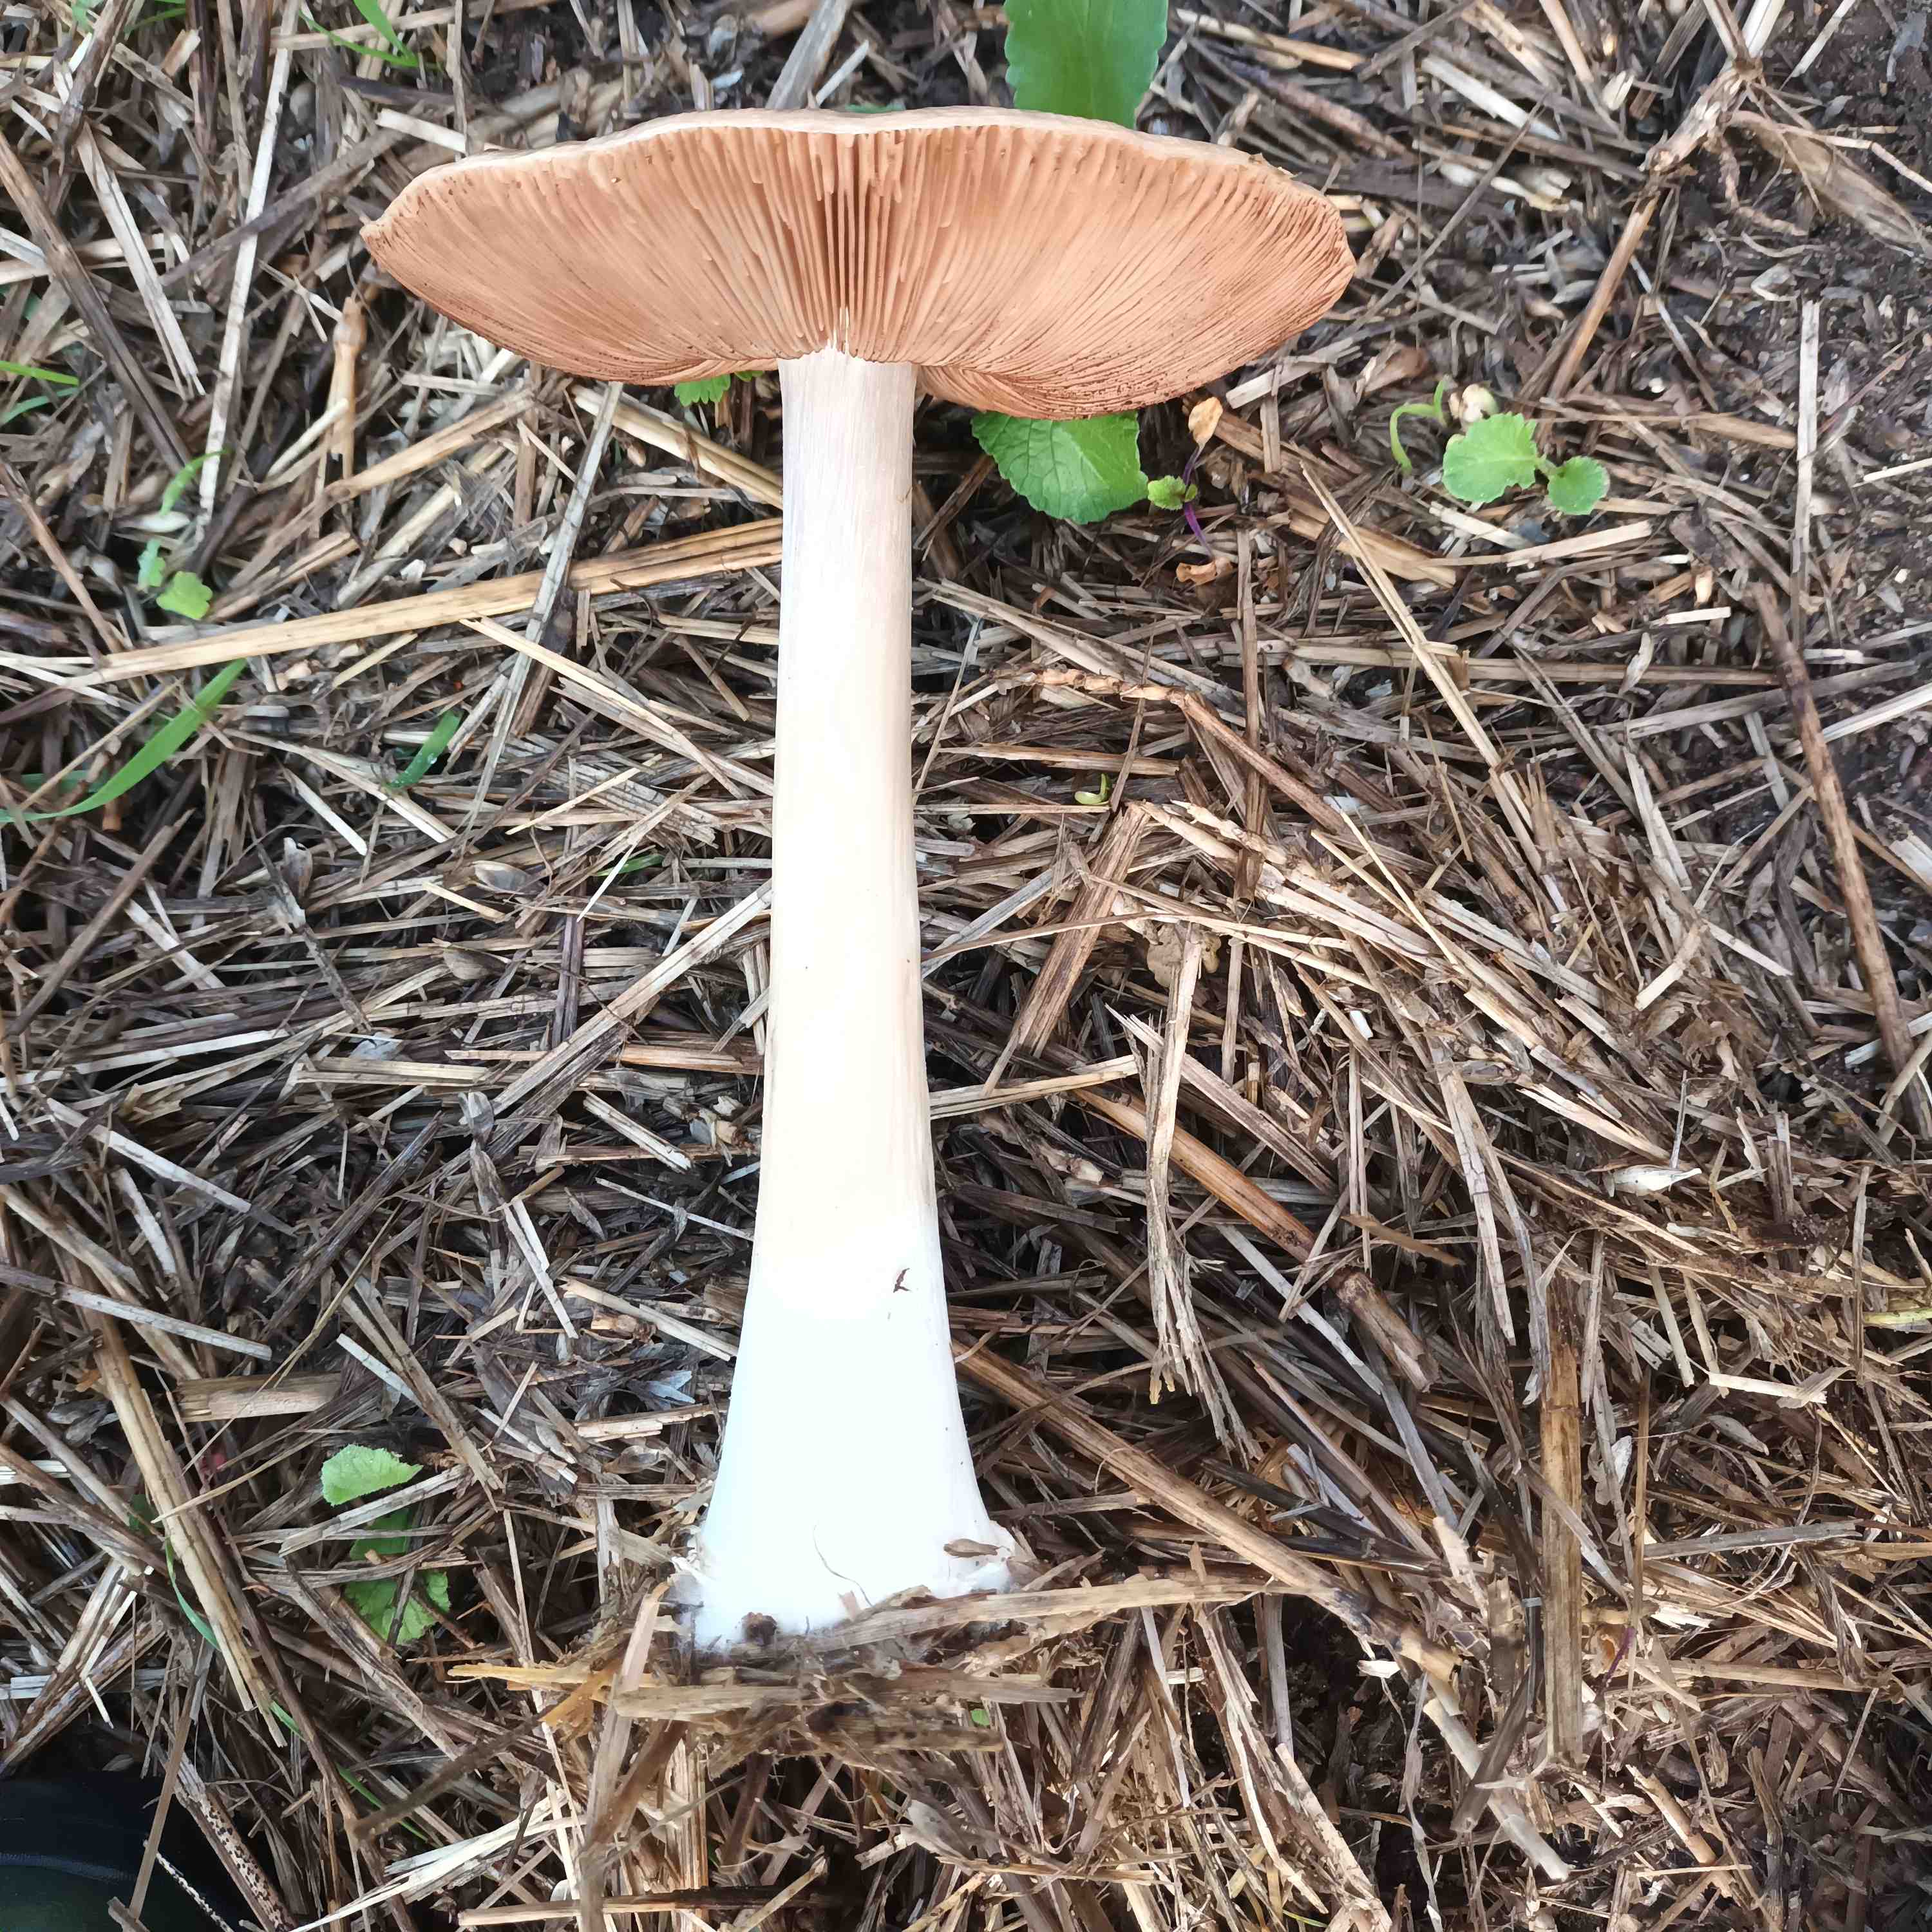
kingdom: Fungi
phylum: Basidiomycota
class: Agaricomycetes
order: Agaricales
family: Pluteaceae
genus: Volvopluteus
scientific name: Volvopluteus gloiocephalus
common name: høj posesvamp
